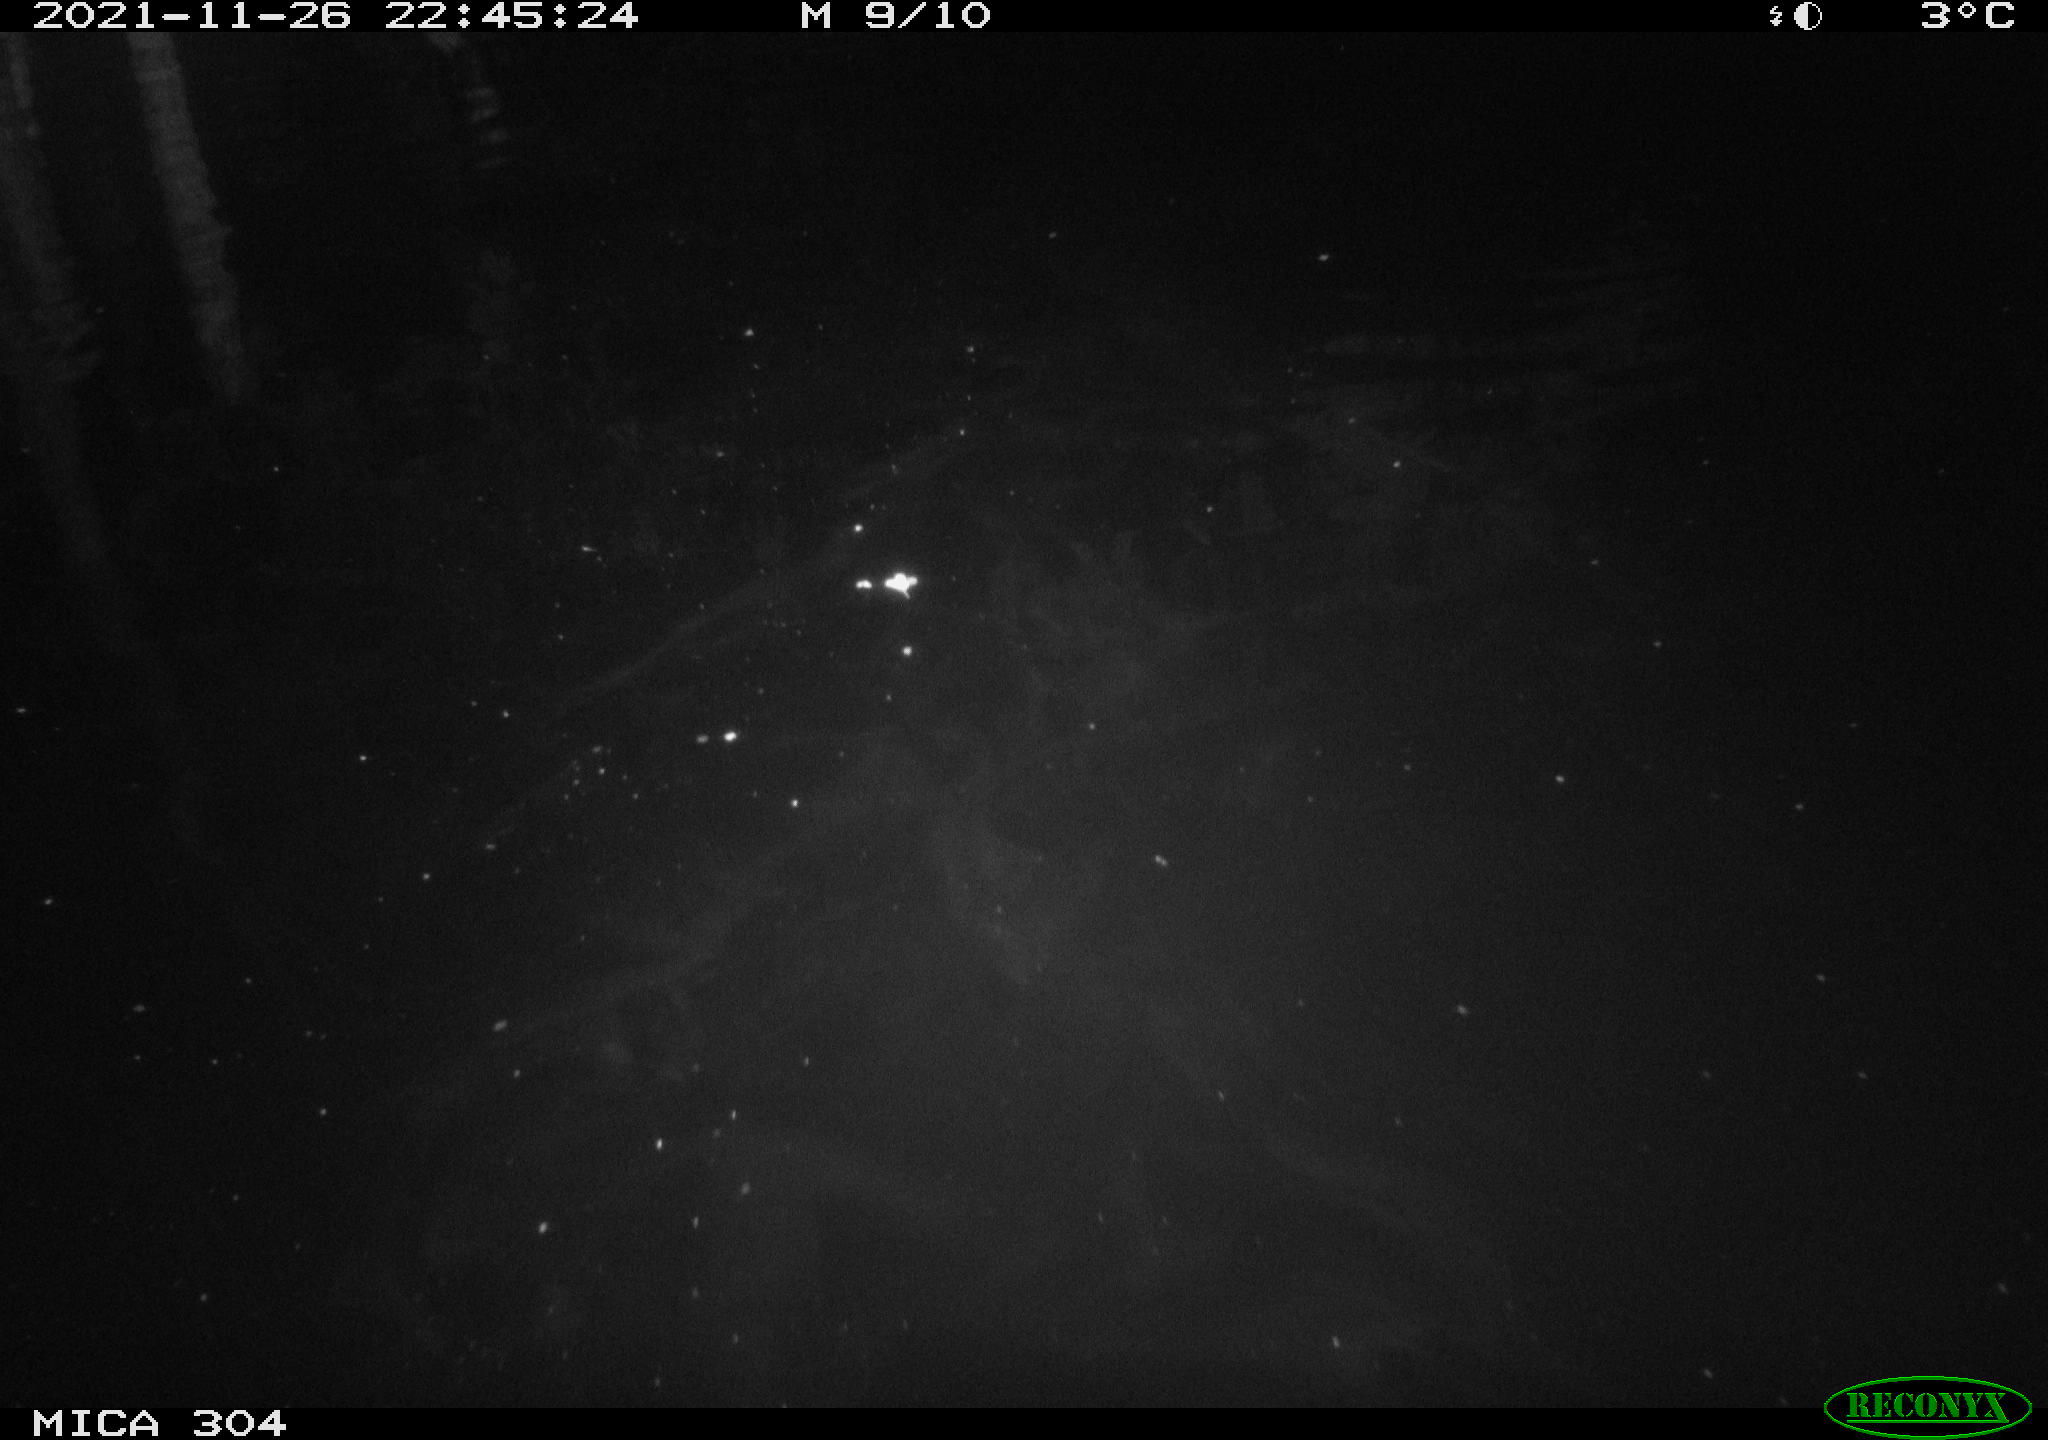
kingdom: Animalia
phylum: Chordata
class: Mammalia
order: Rodentia
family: Muridae
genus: Rattus
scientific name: Rattus norvegicus
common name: Brown rat
